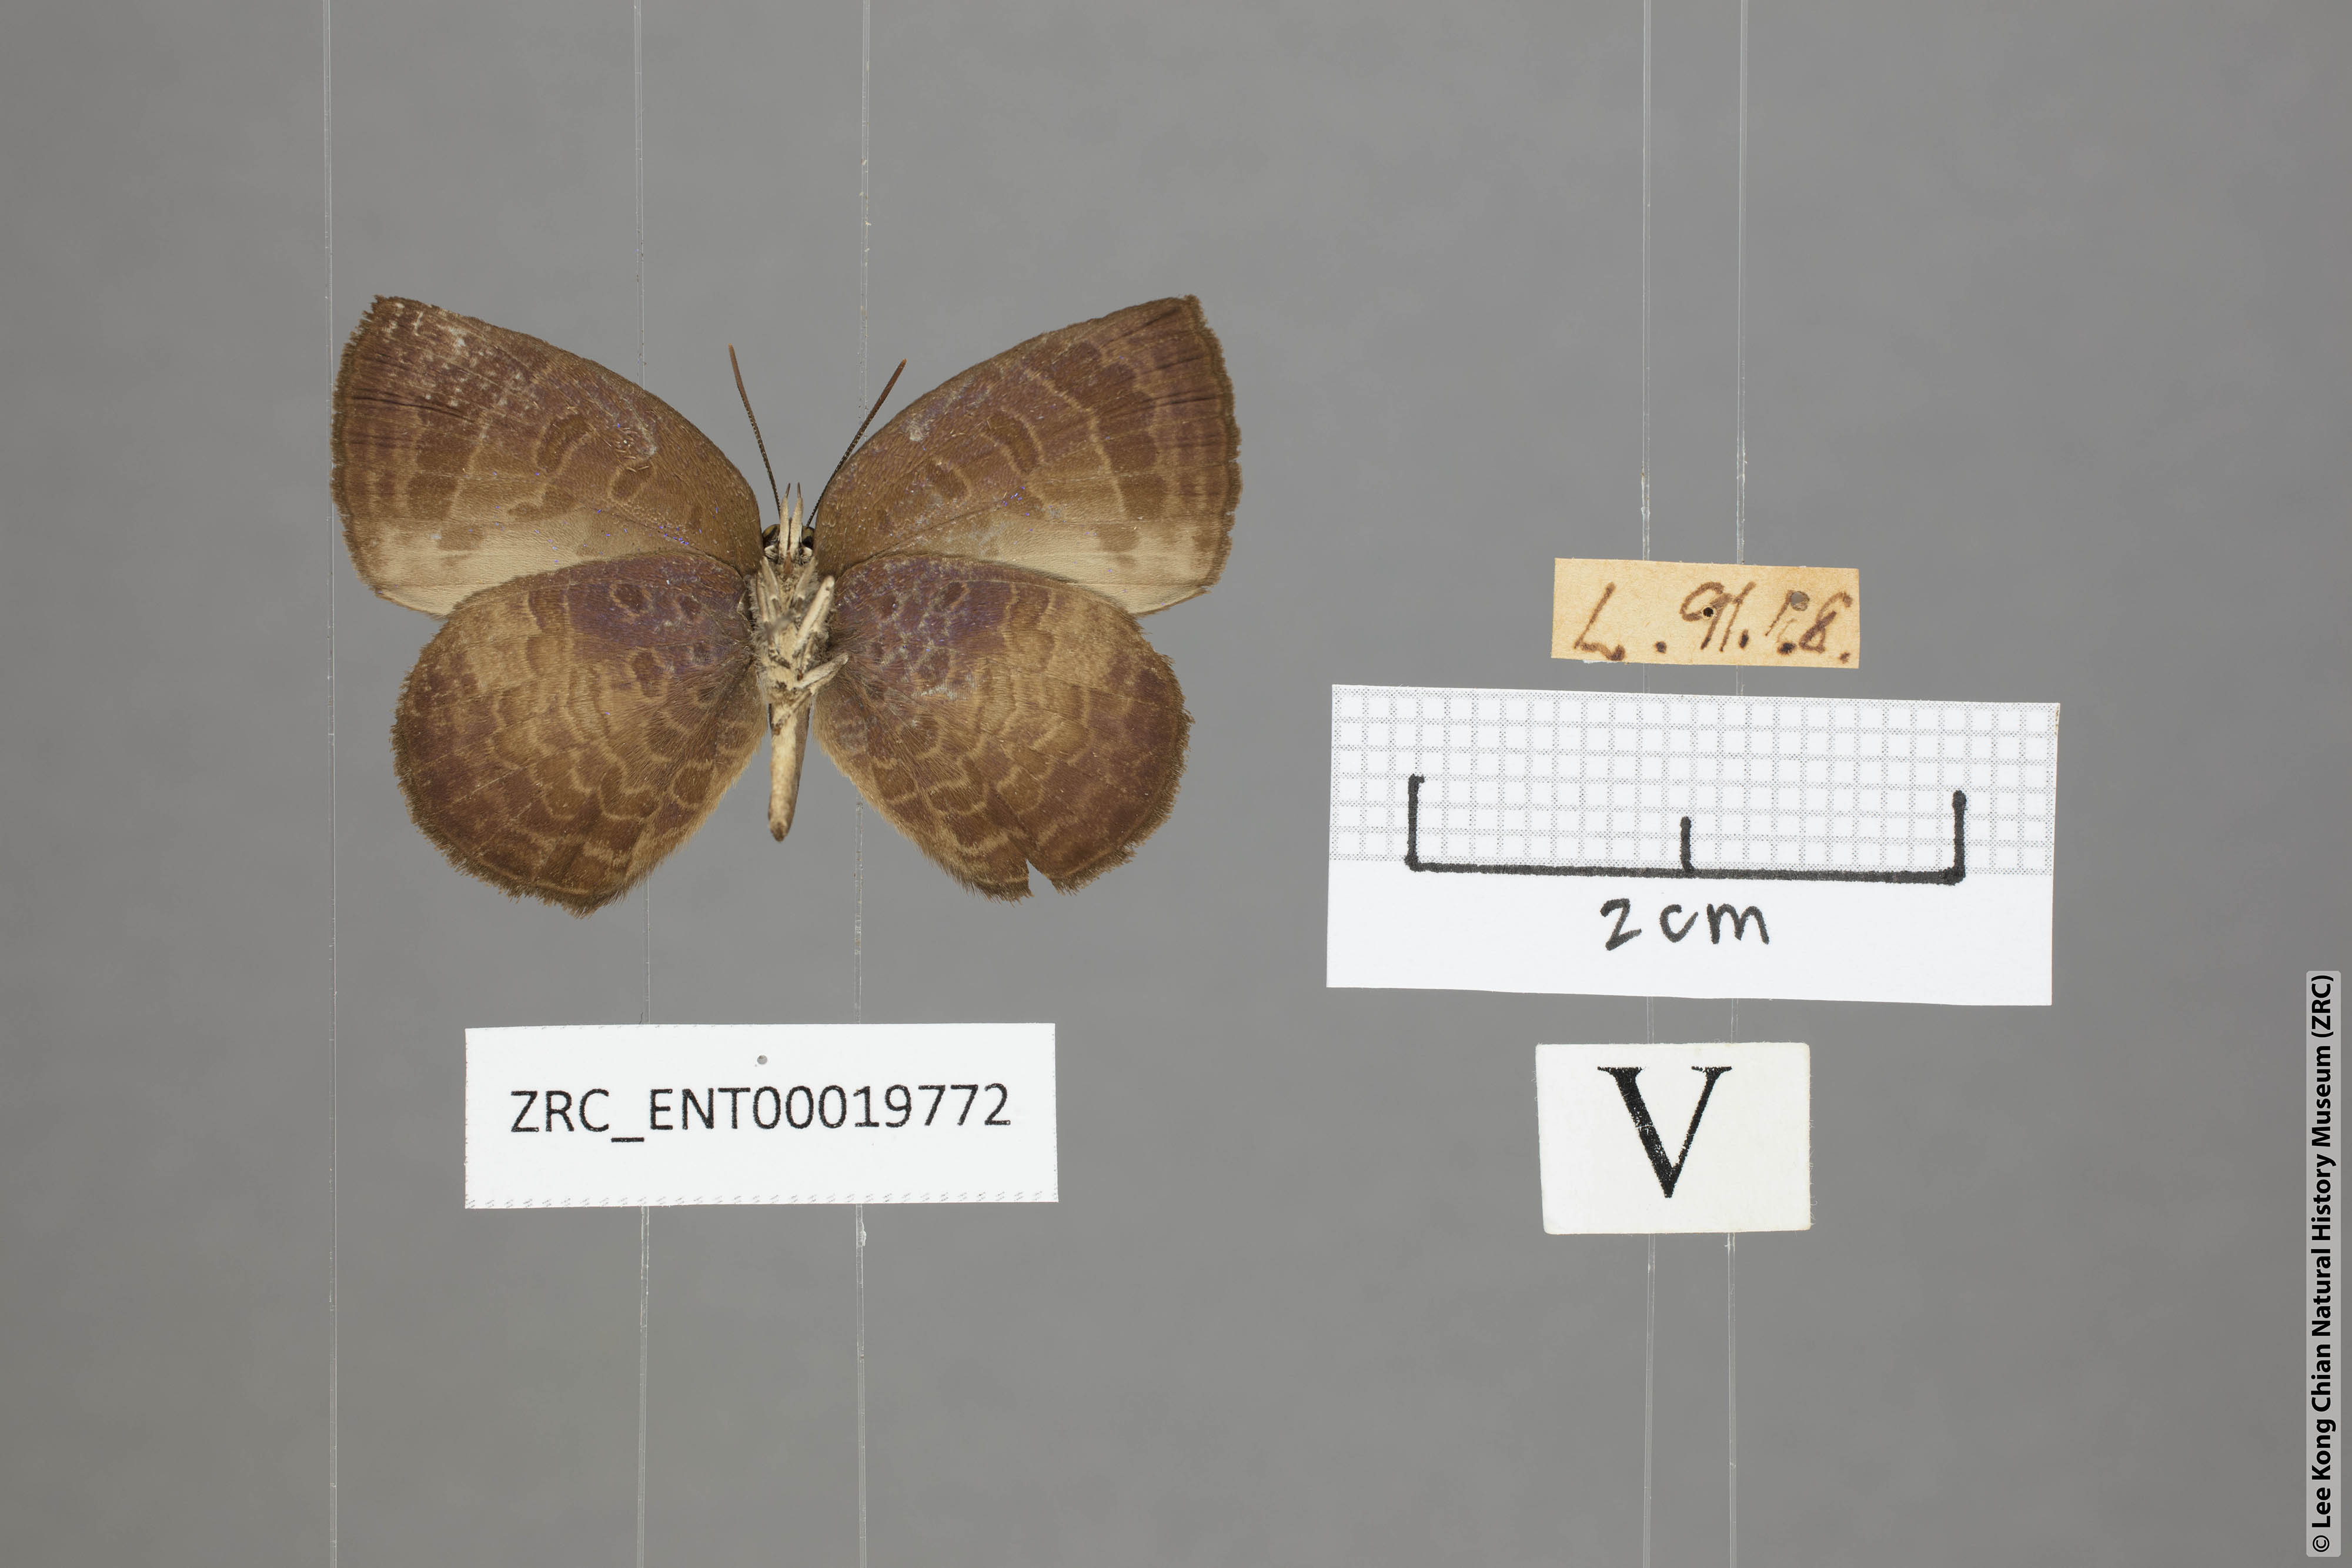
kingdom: Animalia
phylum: Arthropoda
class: Insecta
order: Lepidoptera
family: Lycaenidae
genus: Arhopala
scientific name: Arhopala perimuta
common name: Yellowdisc oakblue
